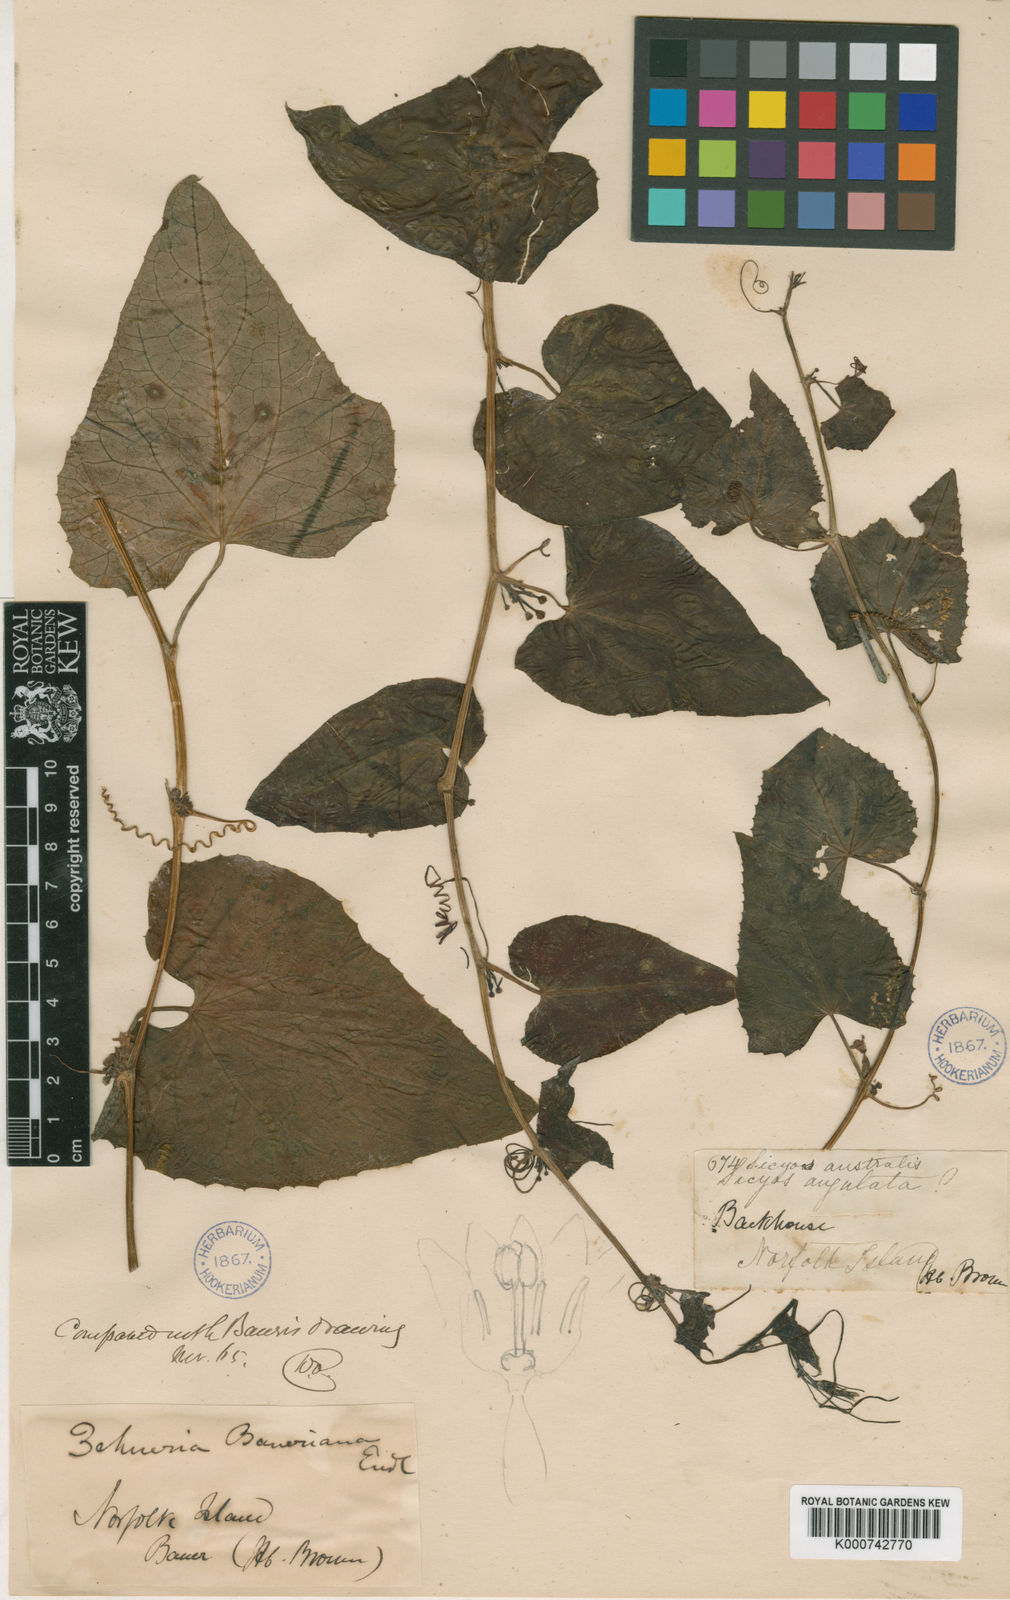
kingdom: Plantae
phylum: Tracheophyta
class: Magnoliopsida
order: Cucurbitales
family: Cucurbitaceae
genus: Zehneria
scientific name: Zehneria mucronata
